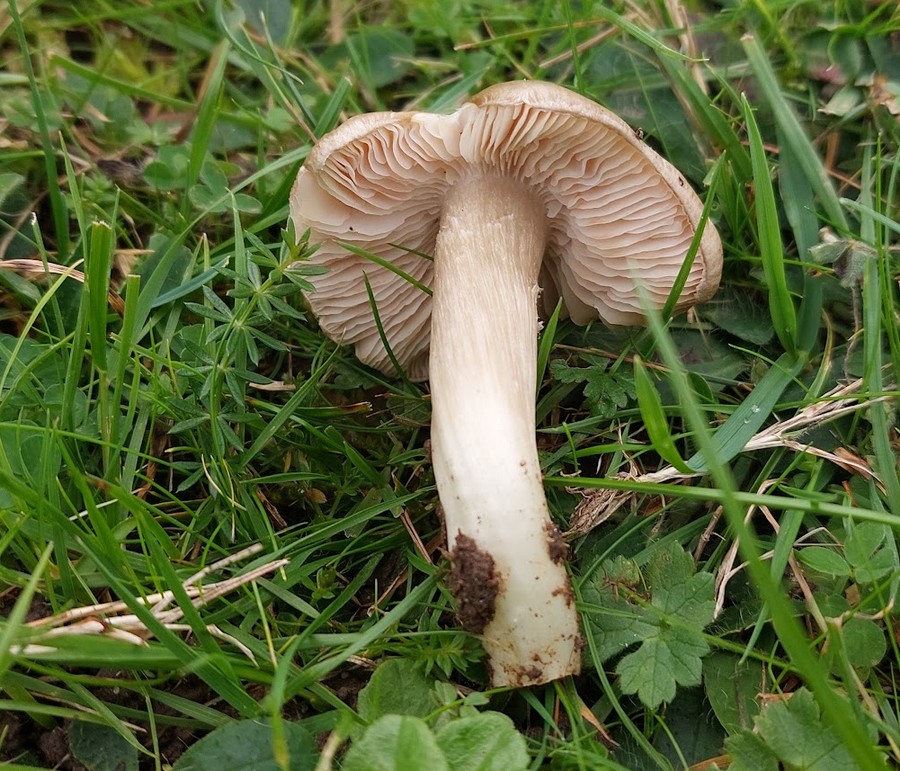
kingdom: Fungi
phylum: Basidiomycota
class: Agaricomycetes
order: Agaricales
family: Entolomataceae
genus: Entoloma
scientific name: Entoloma prunuloides
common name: mel-rødblad
